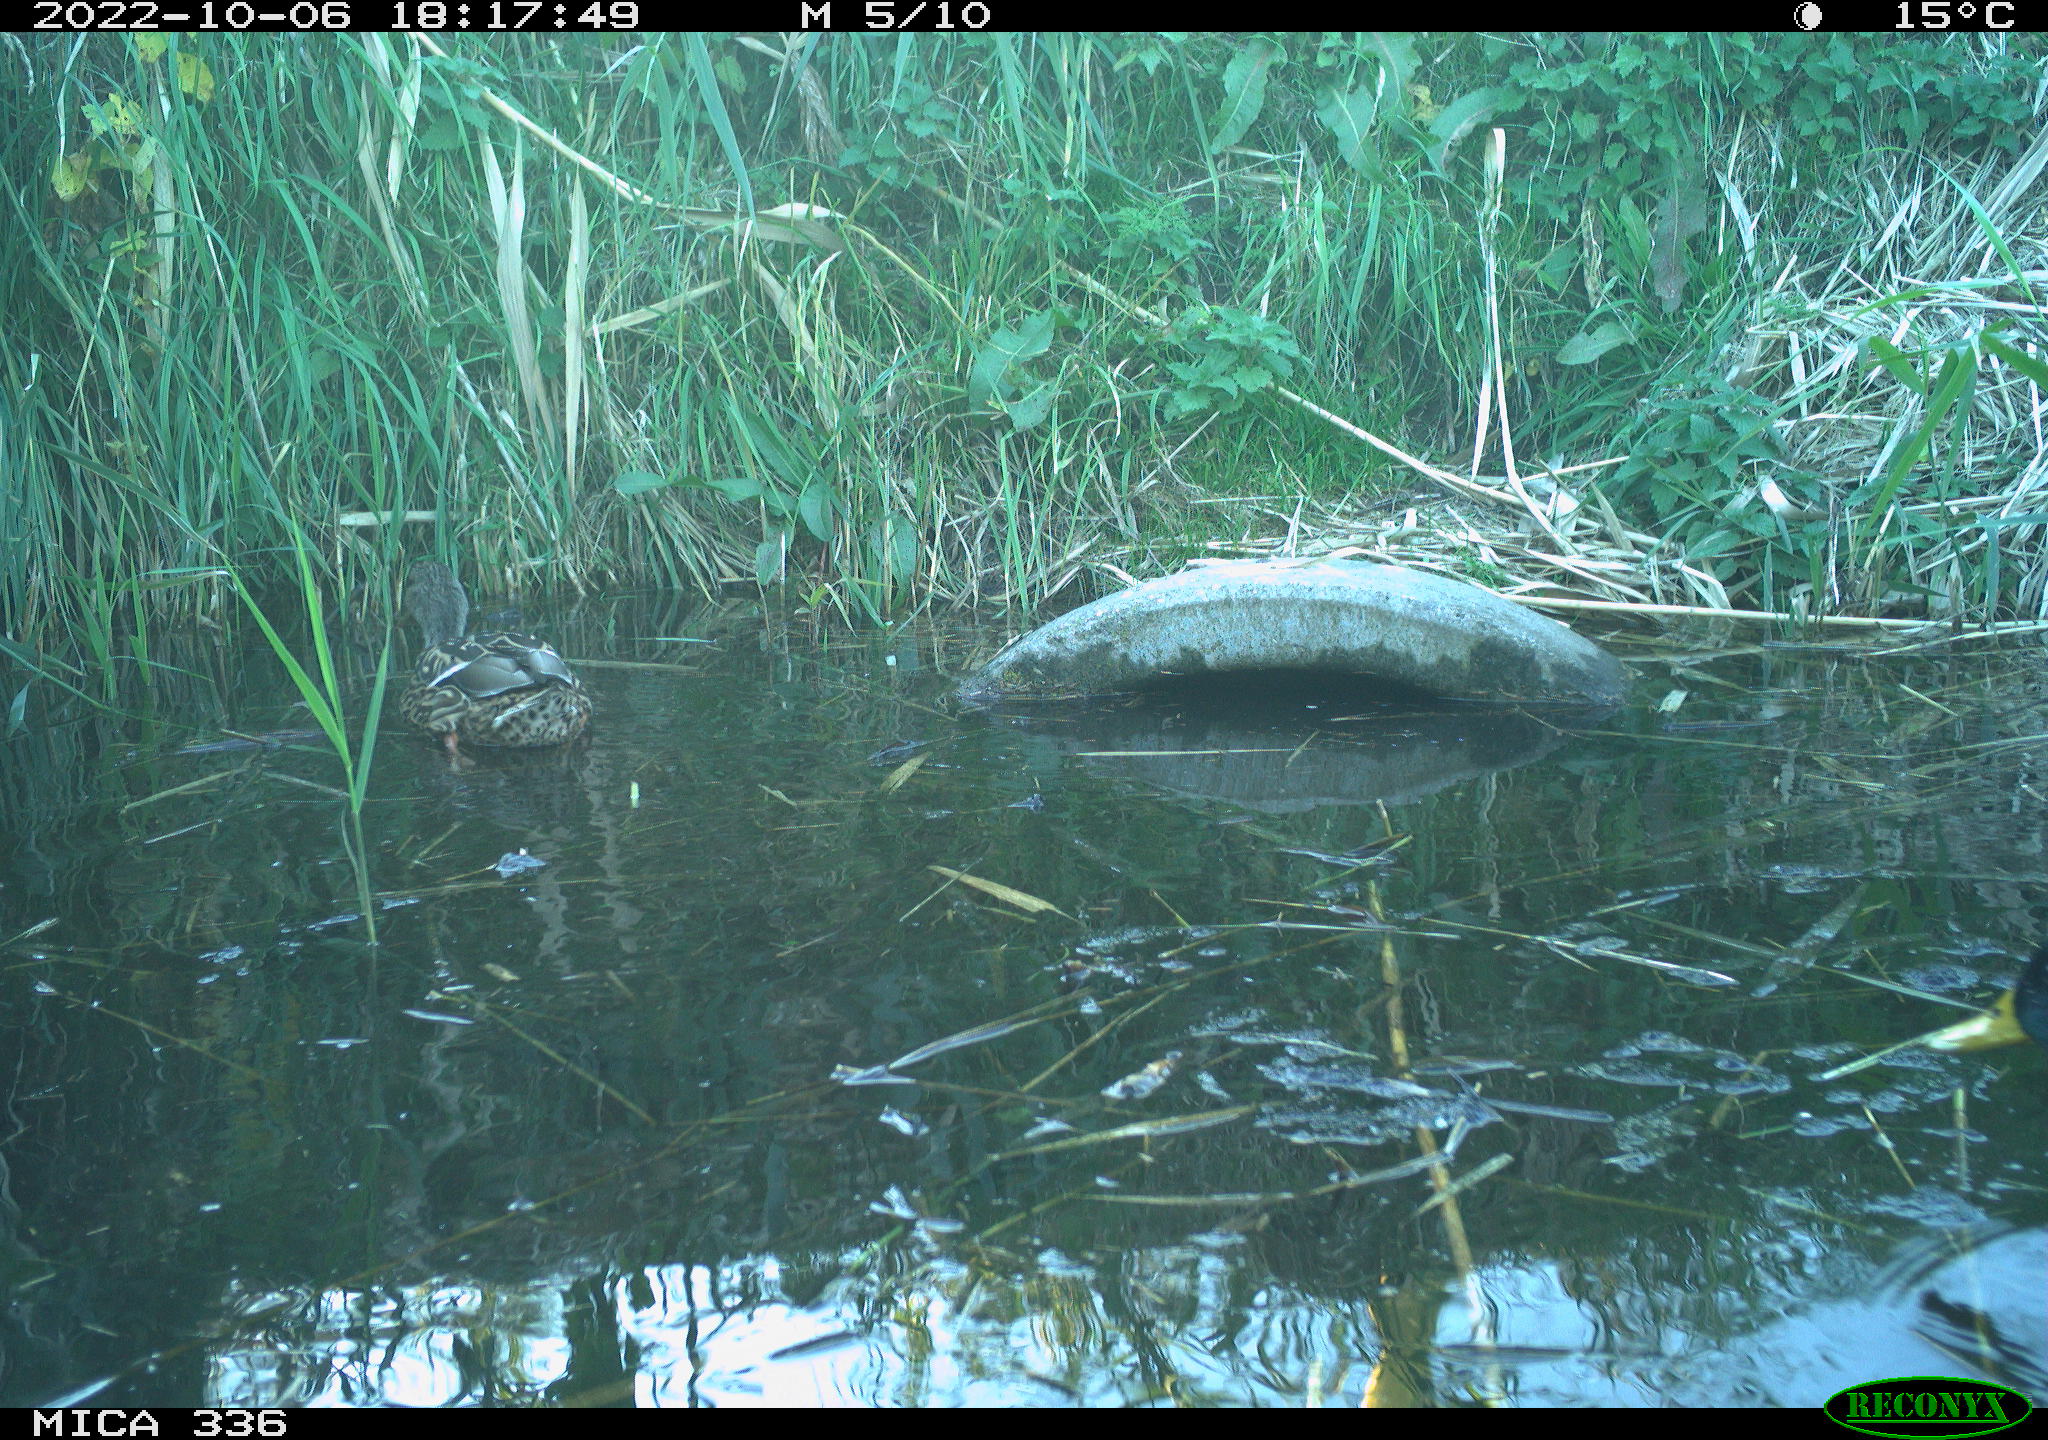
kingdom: Animalia
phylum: Chordata
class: Aves
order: Anseriformes
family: Anatidae
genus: Anas
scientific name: Anas
